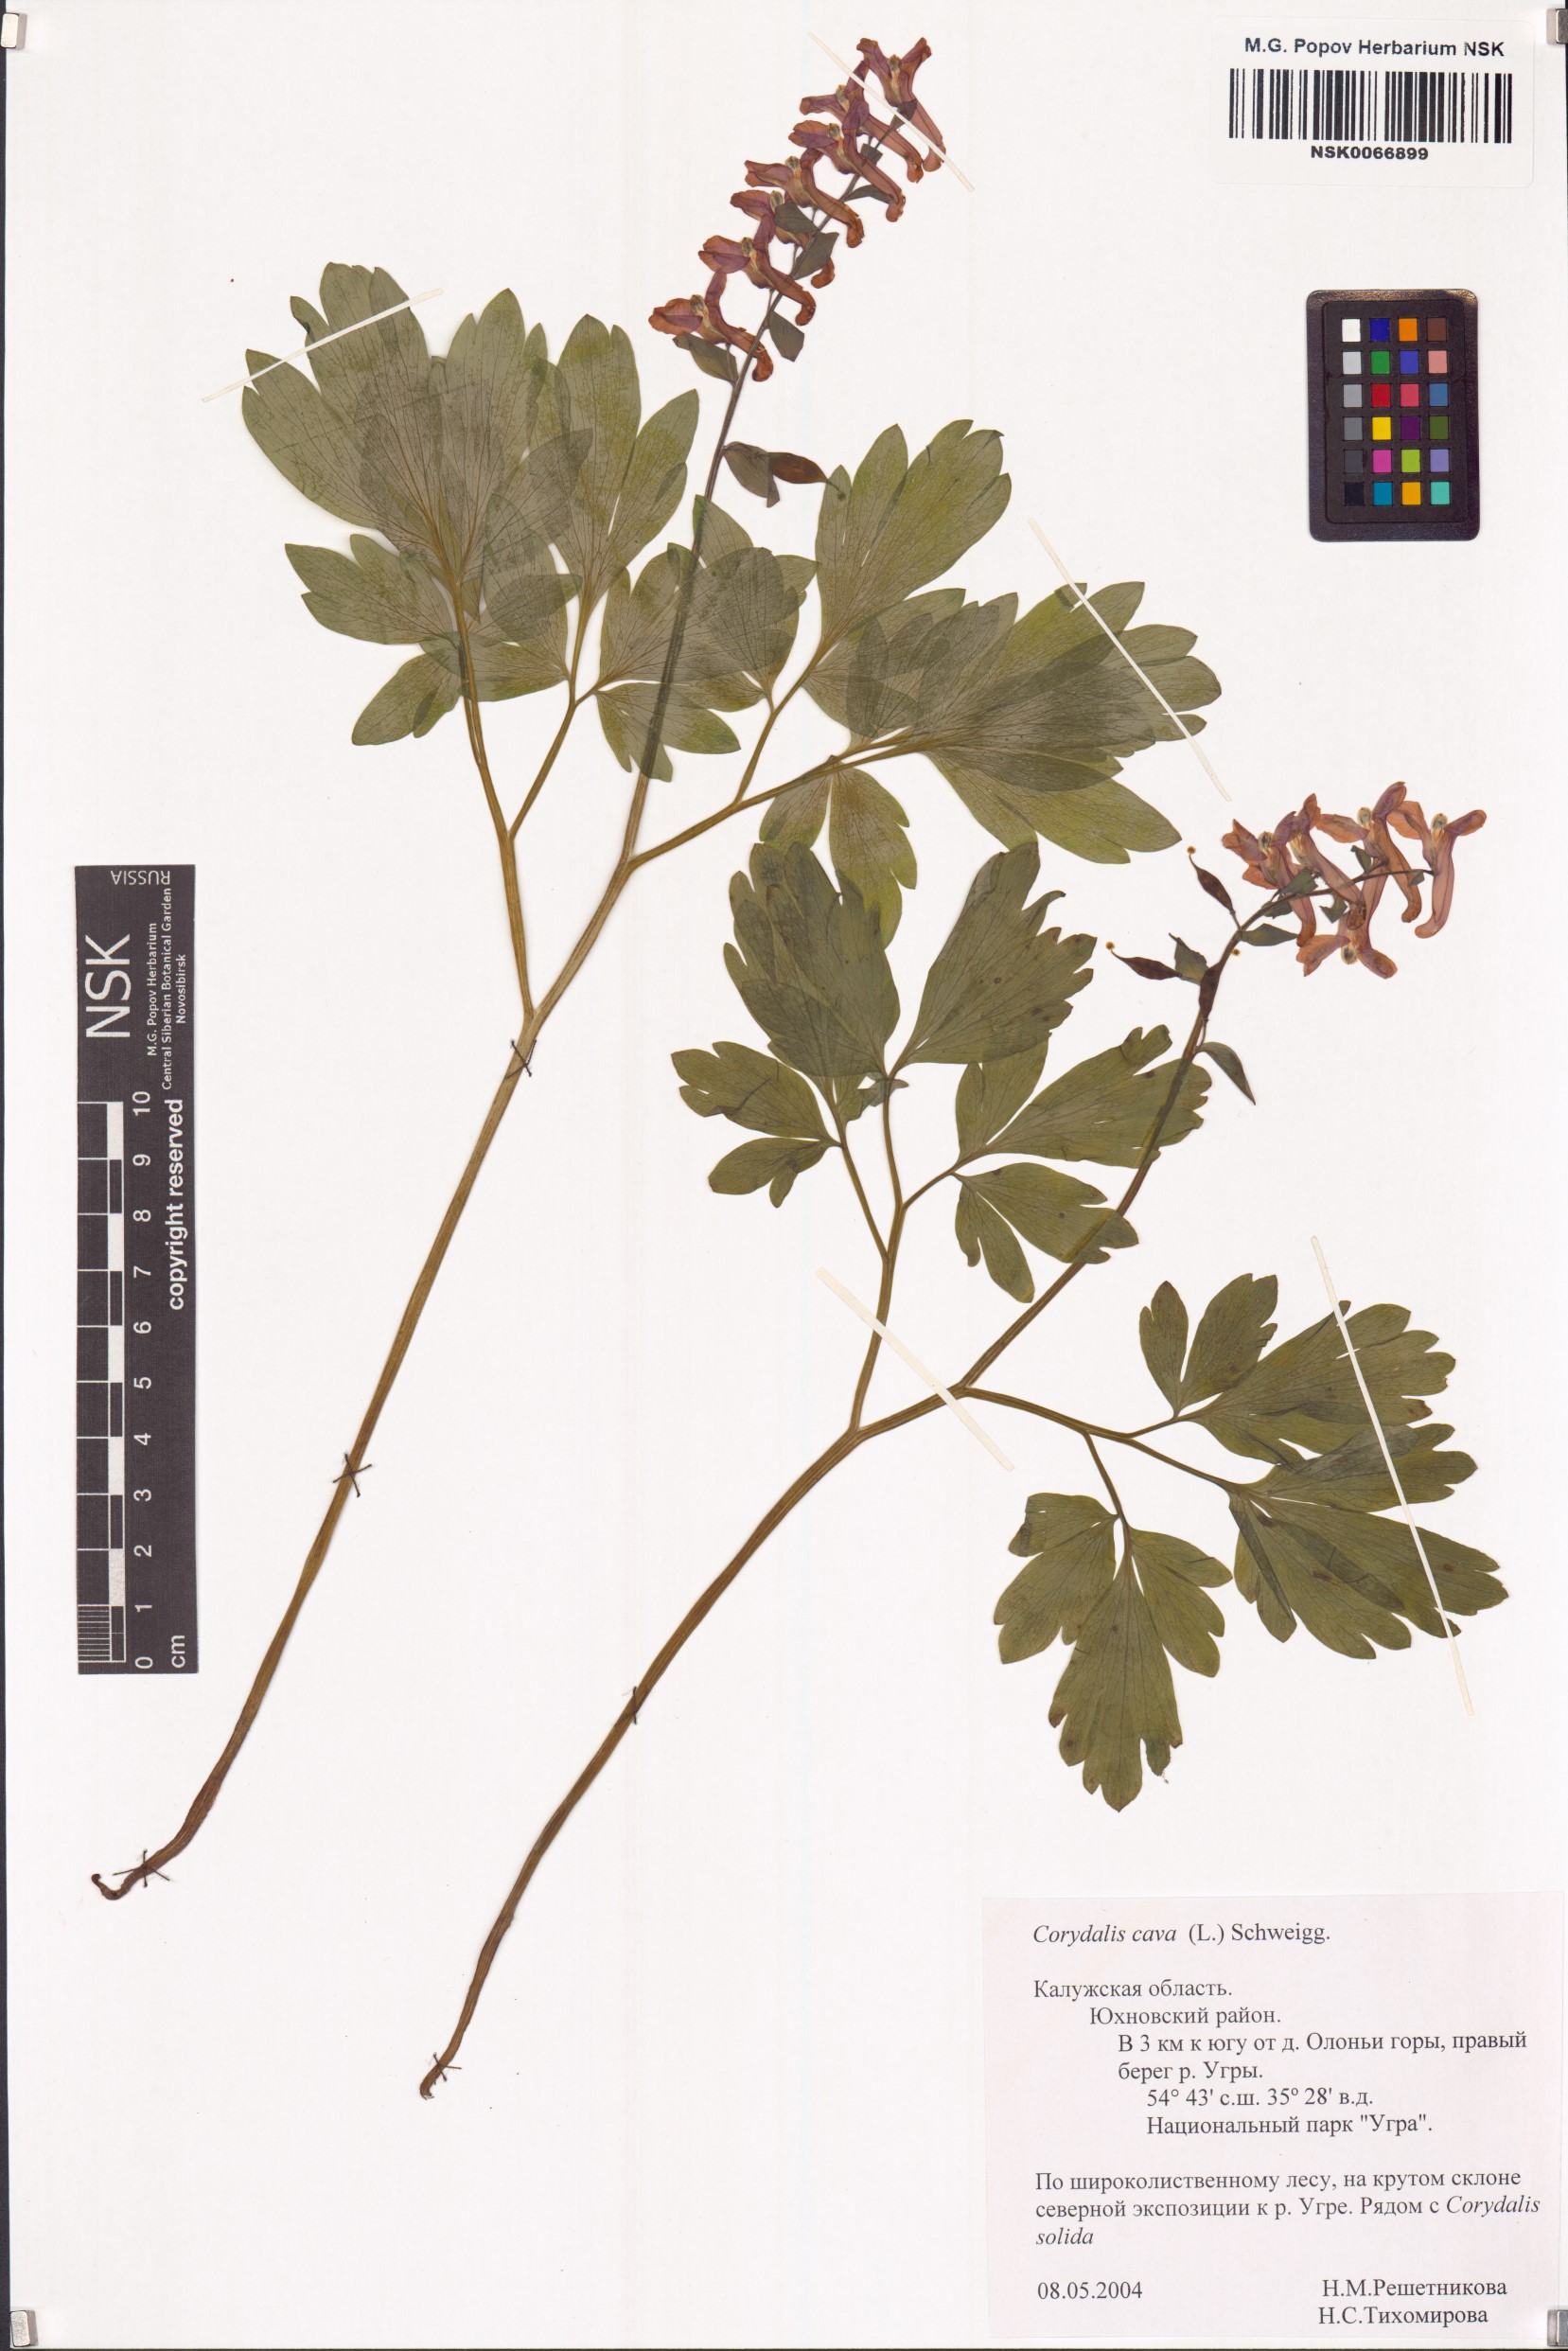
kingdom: Plantae
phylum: Tracheophyta
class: Magnoliopsida
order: Ranunculales
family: Papaveraceae
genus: Corydalis
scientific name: Corydalis cava
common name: Hollowroot
